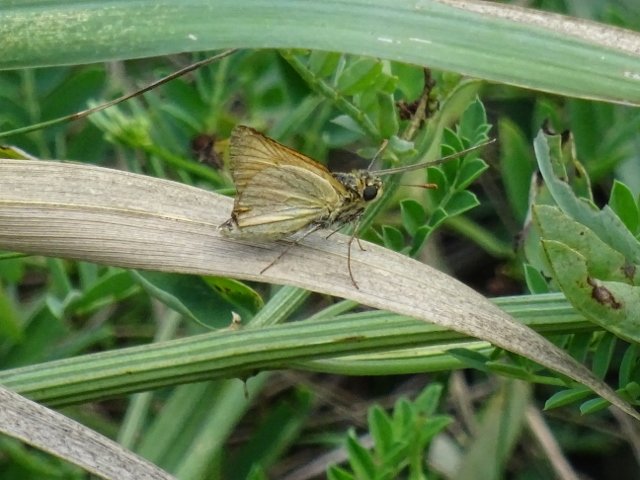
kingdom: Animalia
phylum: Arthropoda
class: Insecta
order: Lepidoptera
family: Hesperiidae
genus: Atrytone
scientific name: Atrytone delaware
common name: Delaware Skipper
